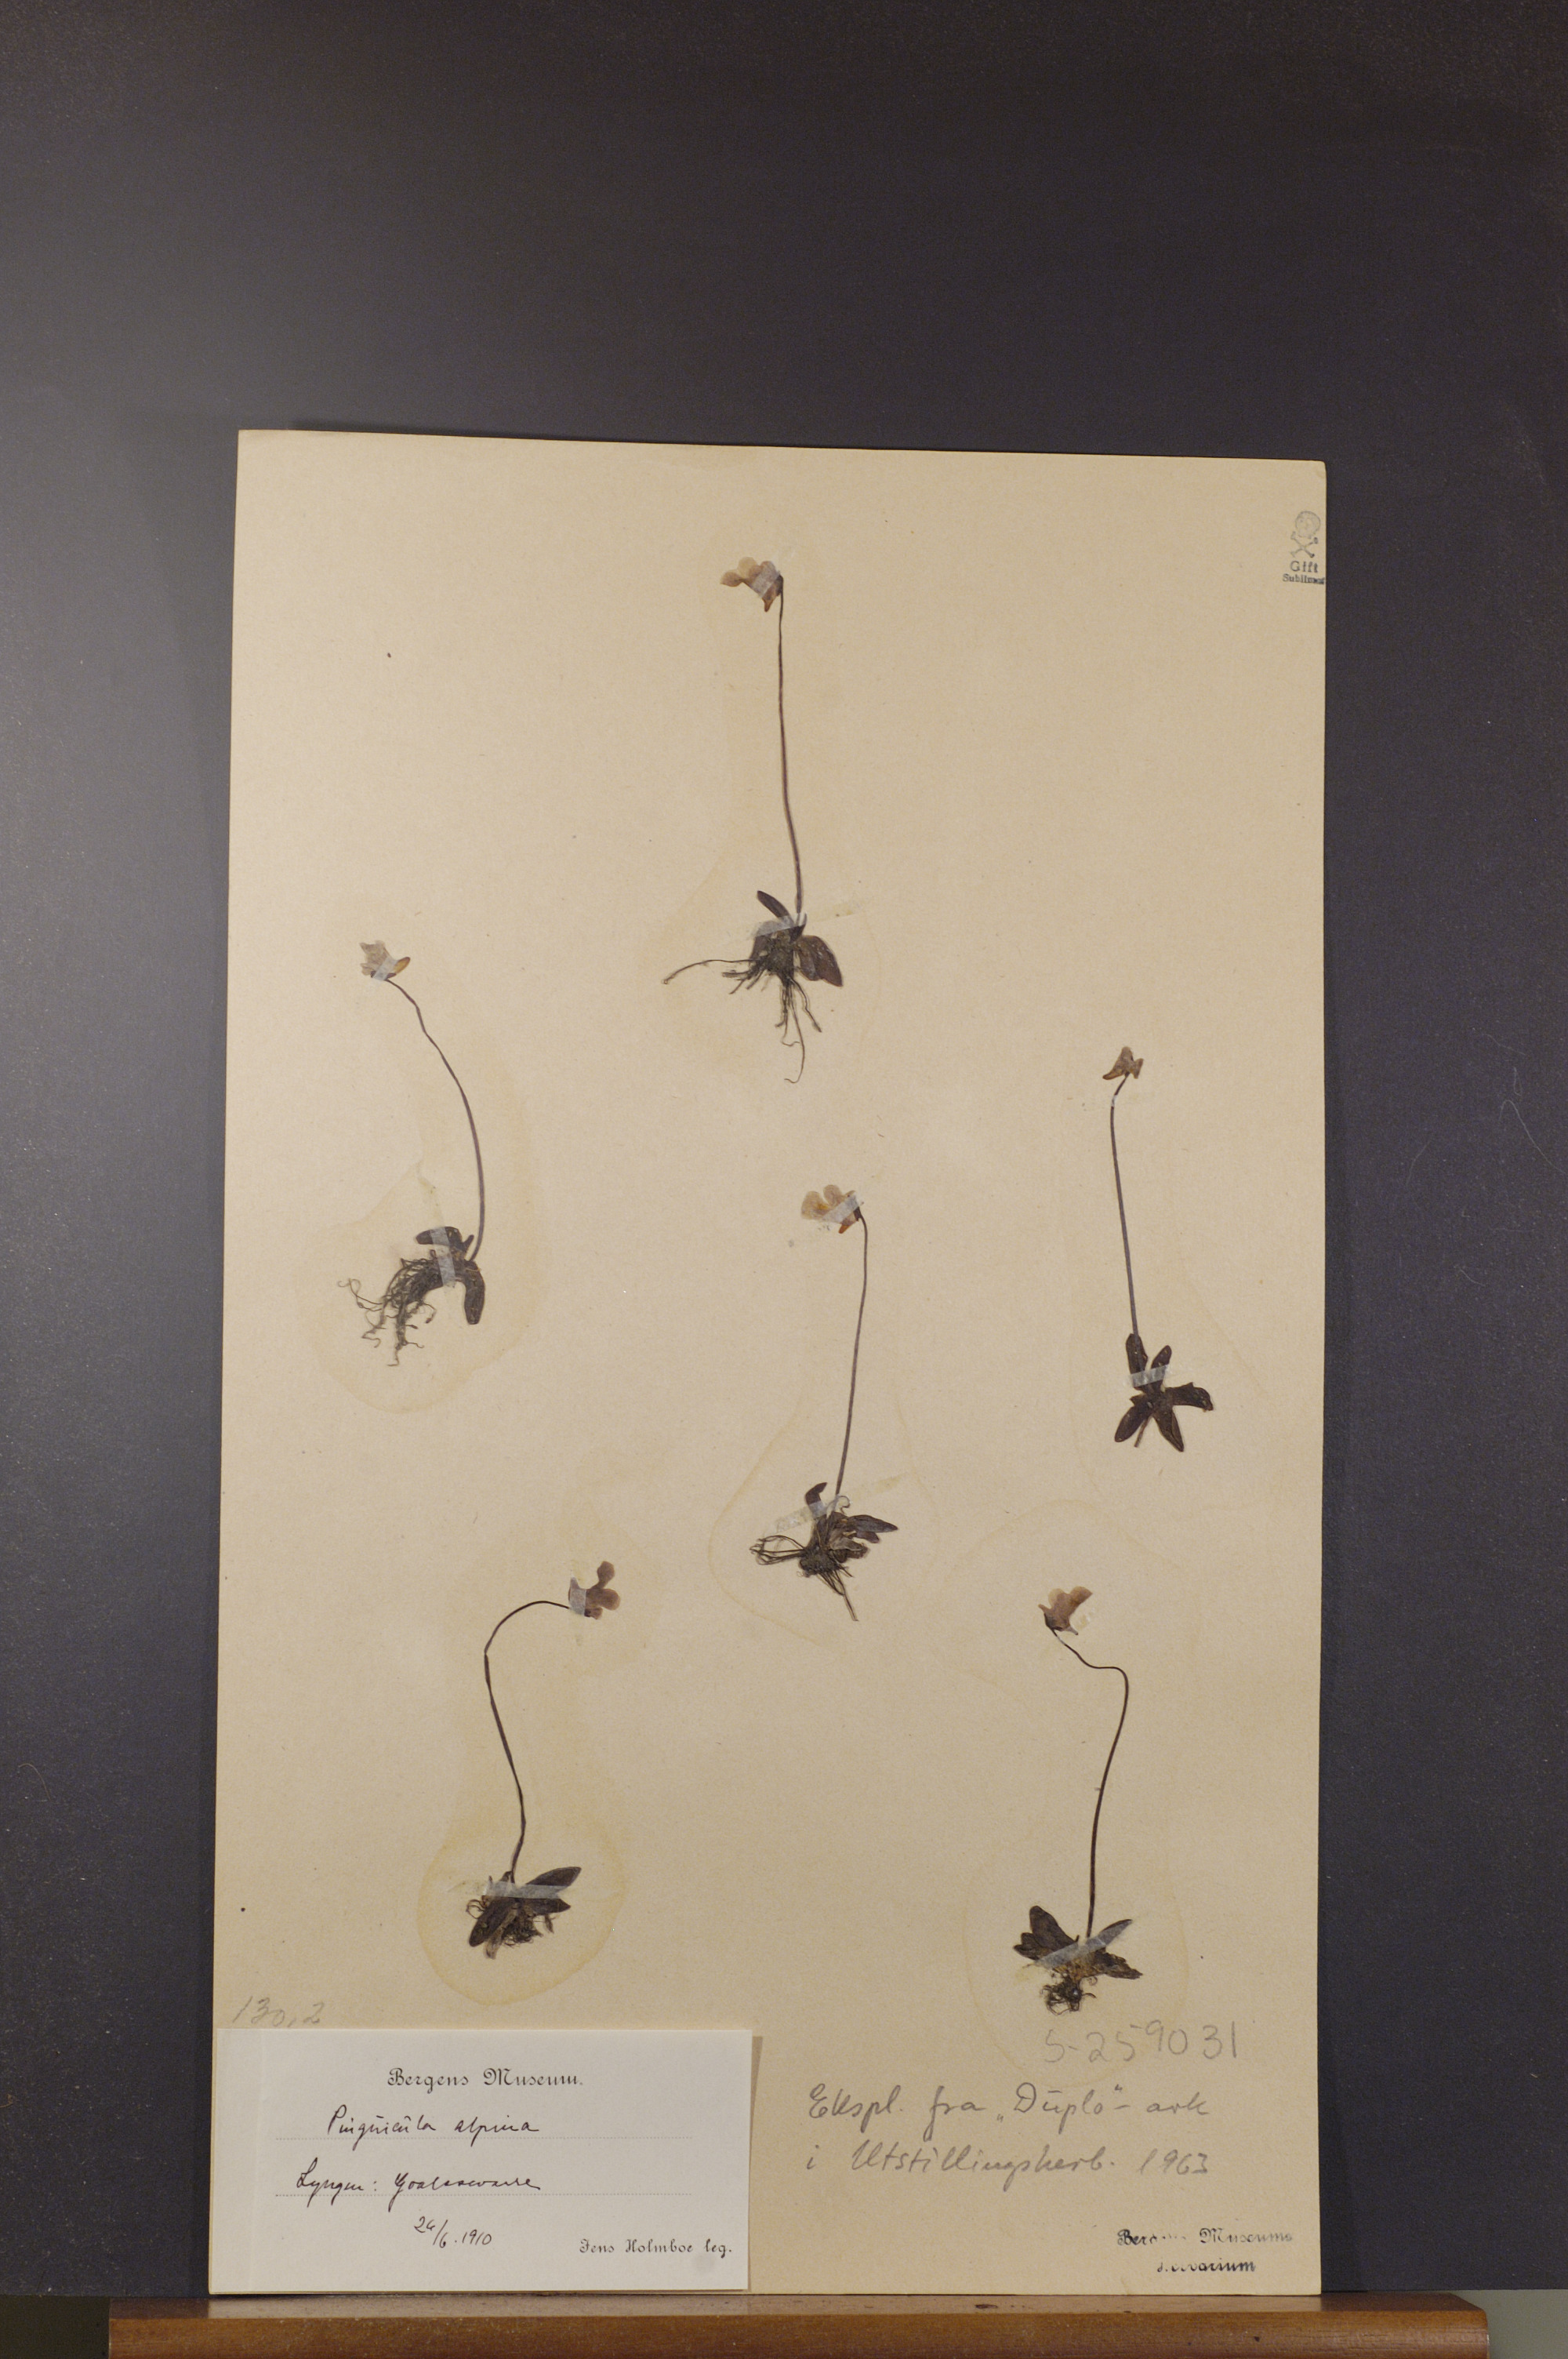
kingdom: Plantae
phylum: Tracheophyta
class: Magnoliopsida
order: Lamiales
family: Lentibulariaceae
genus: Pinguicula
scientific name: Pinguicula alpina
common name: Alpine butterwort
